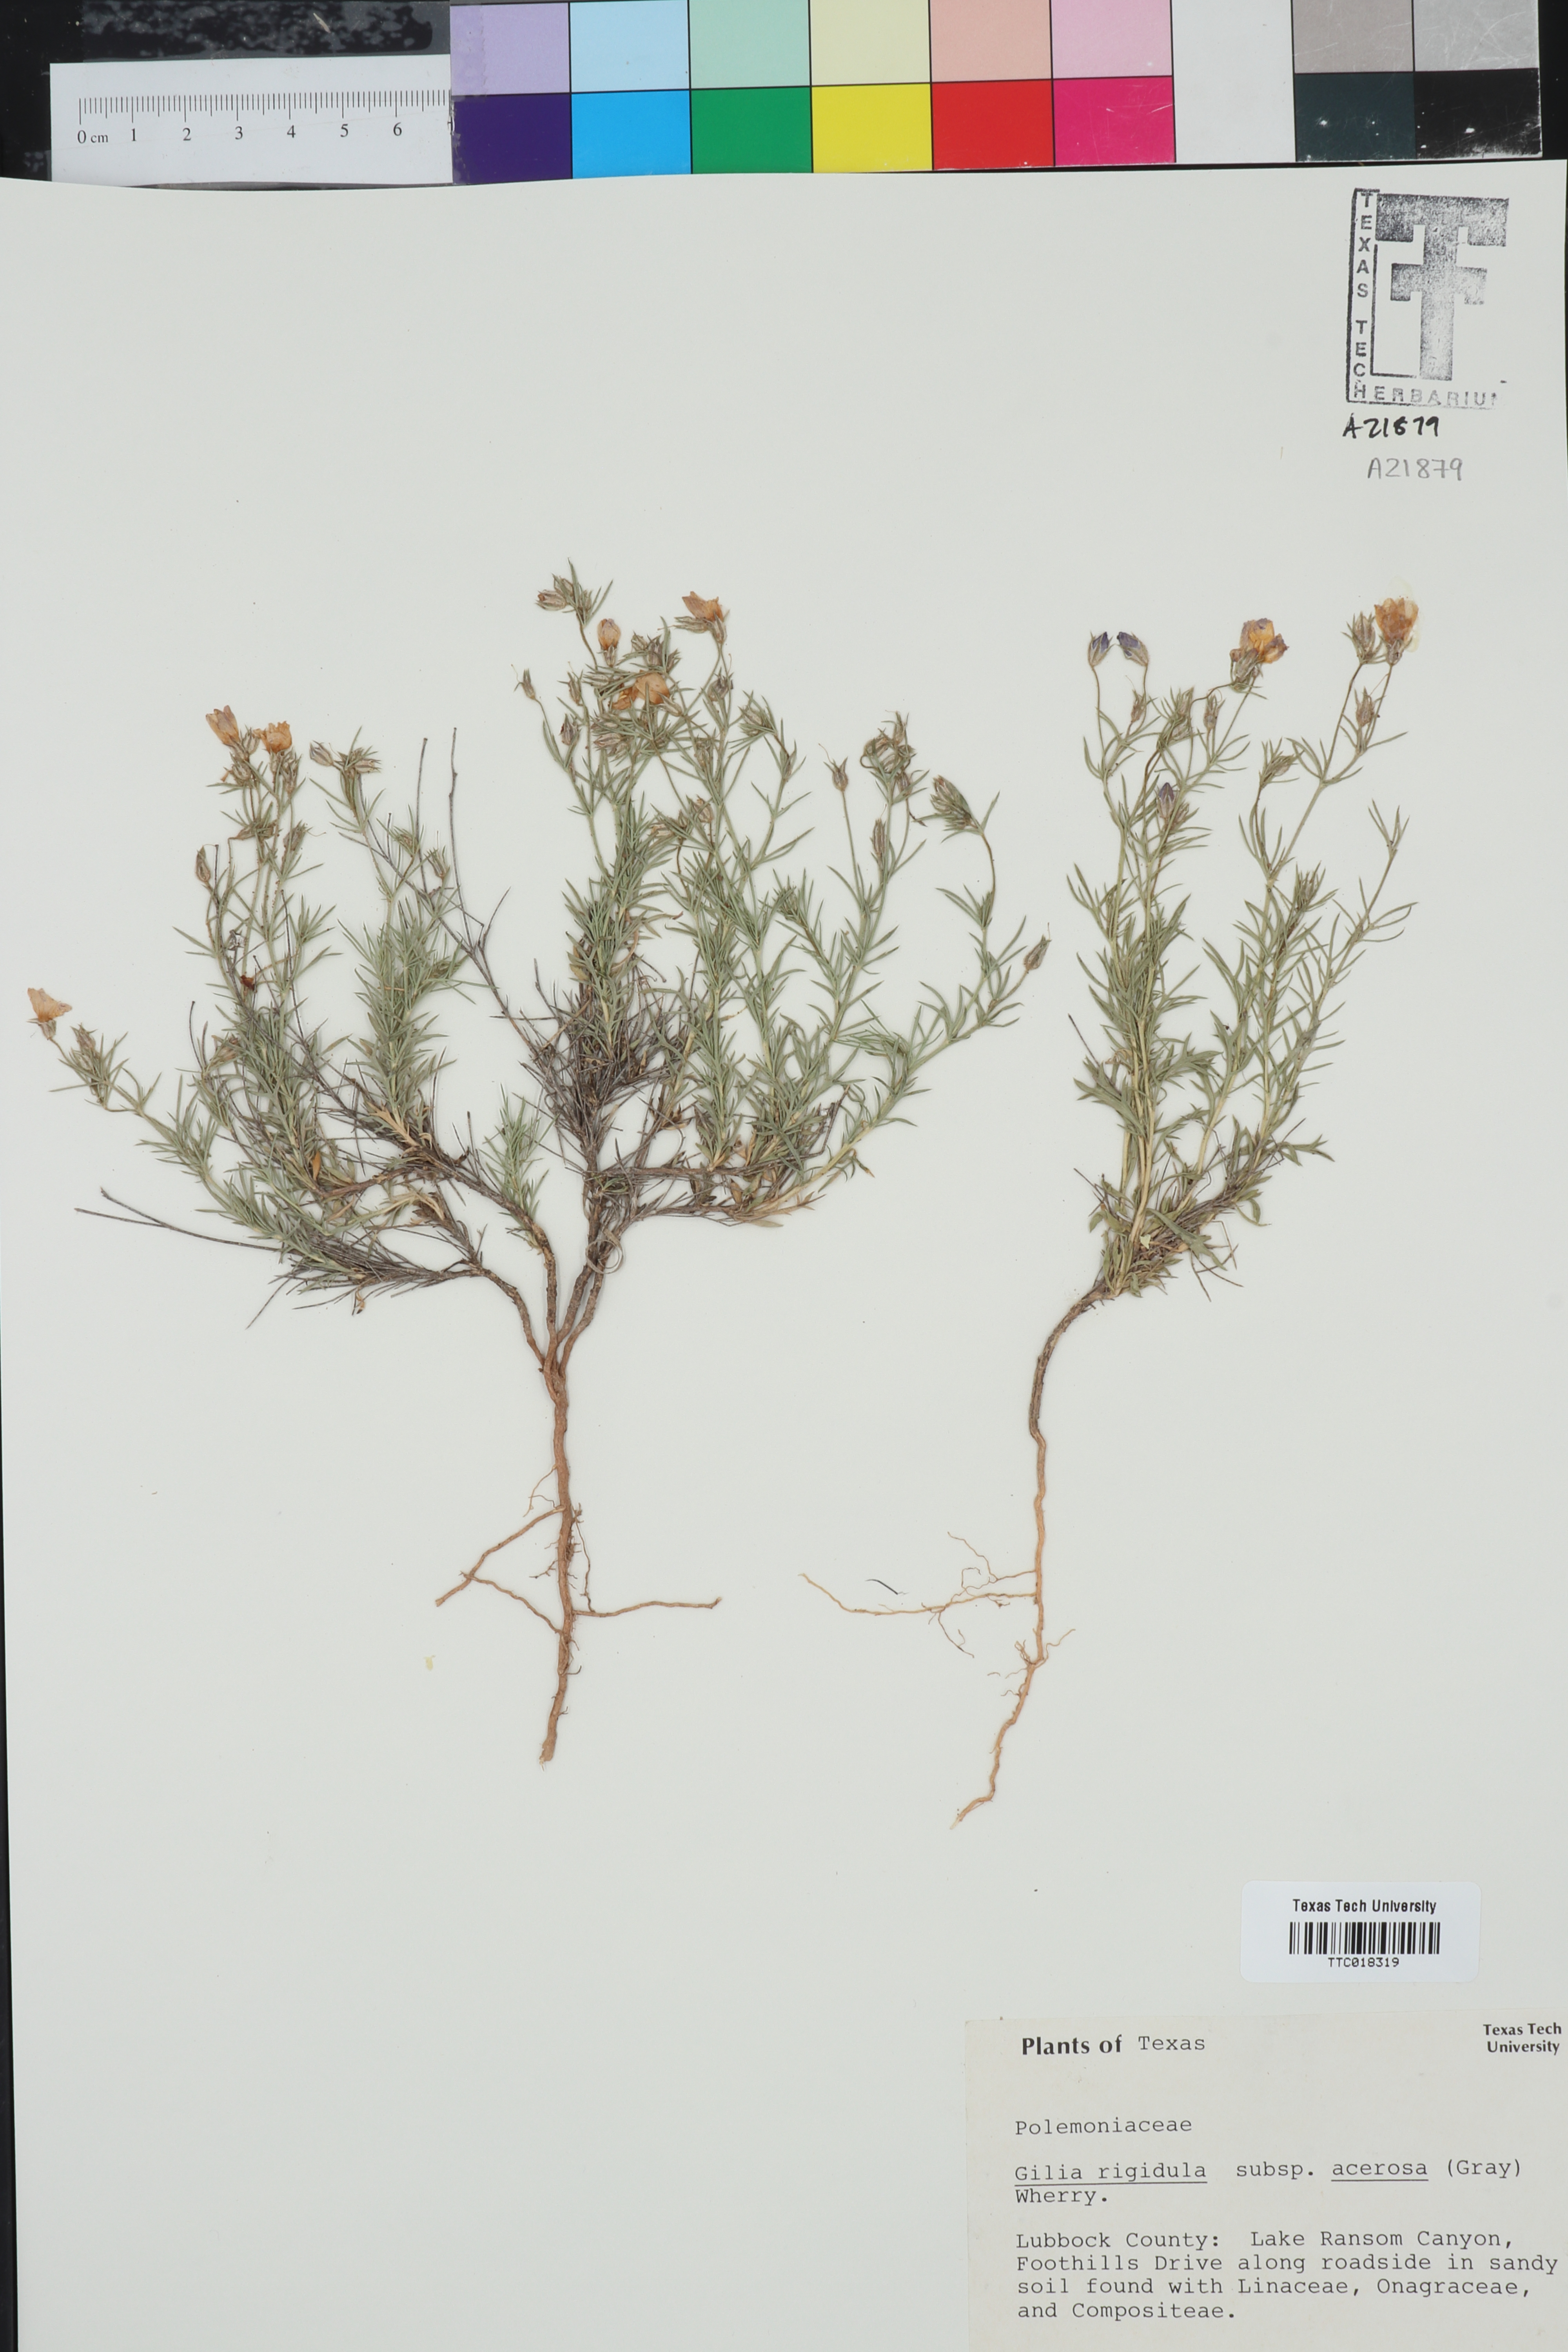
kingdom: Plantae
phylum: Tracheophyta
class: Magnoliopsida
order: Ericales
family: Polemoniaceae
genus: Giliastrum
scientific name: Giliastrum rigidulum
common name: Bluebowls
